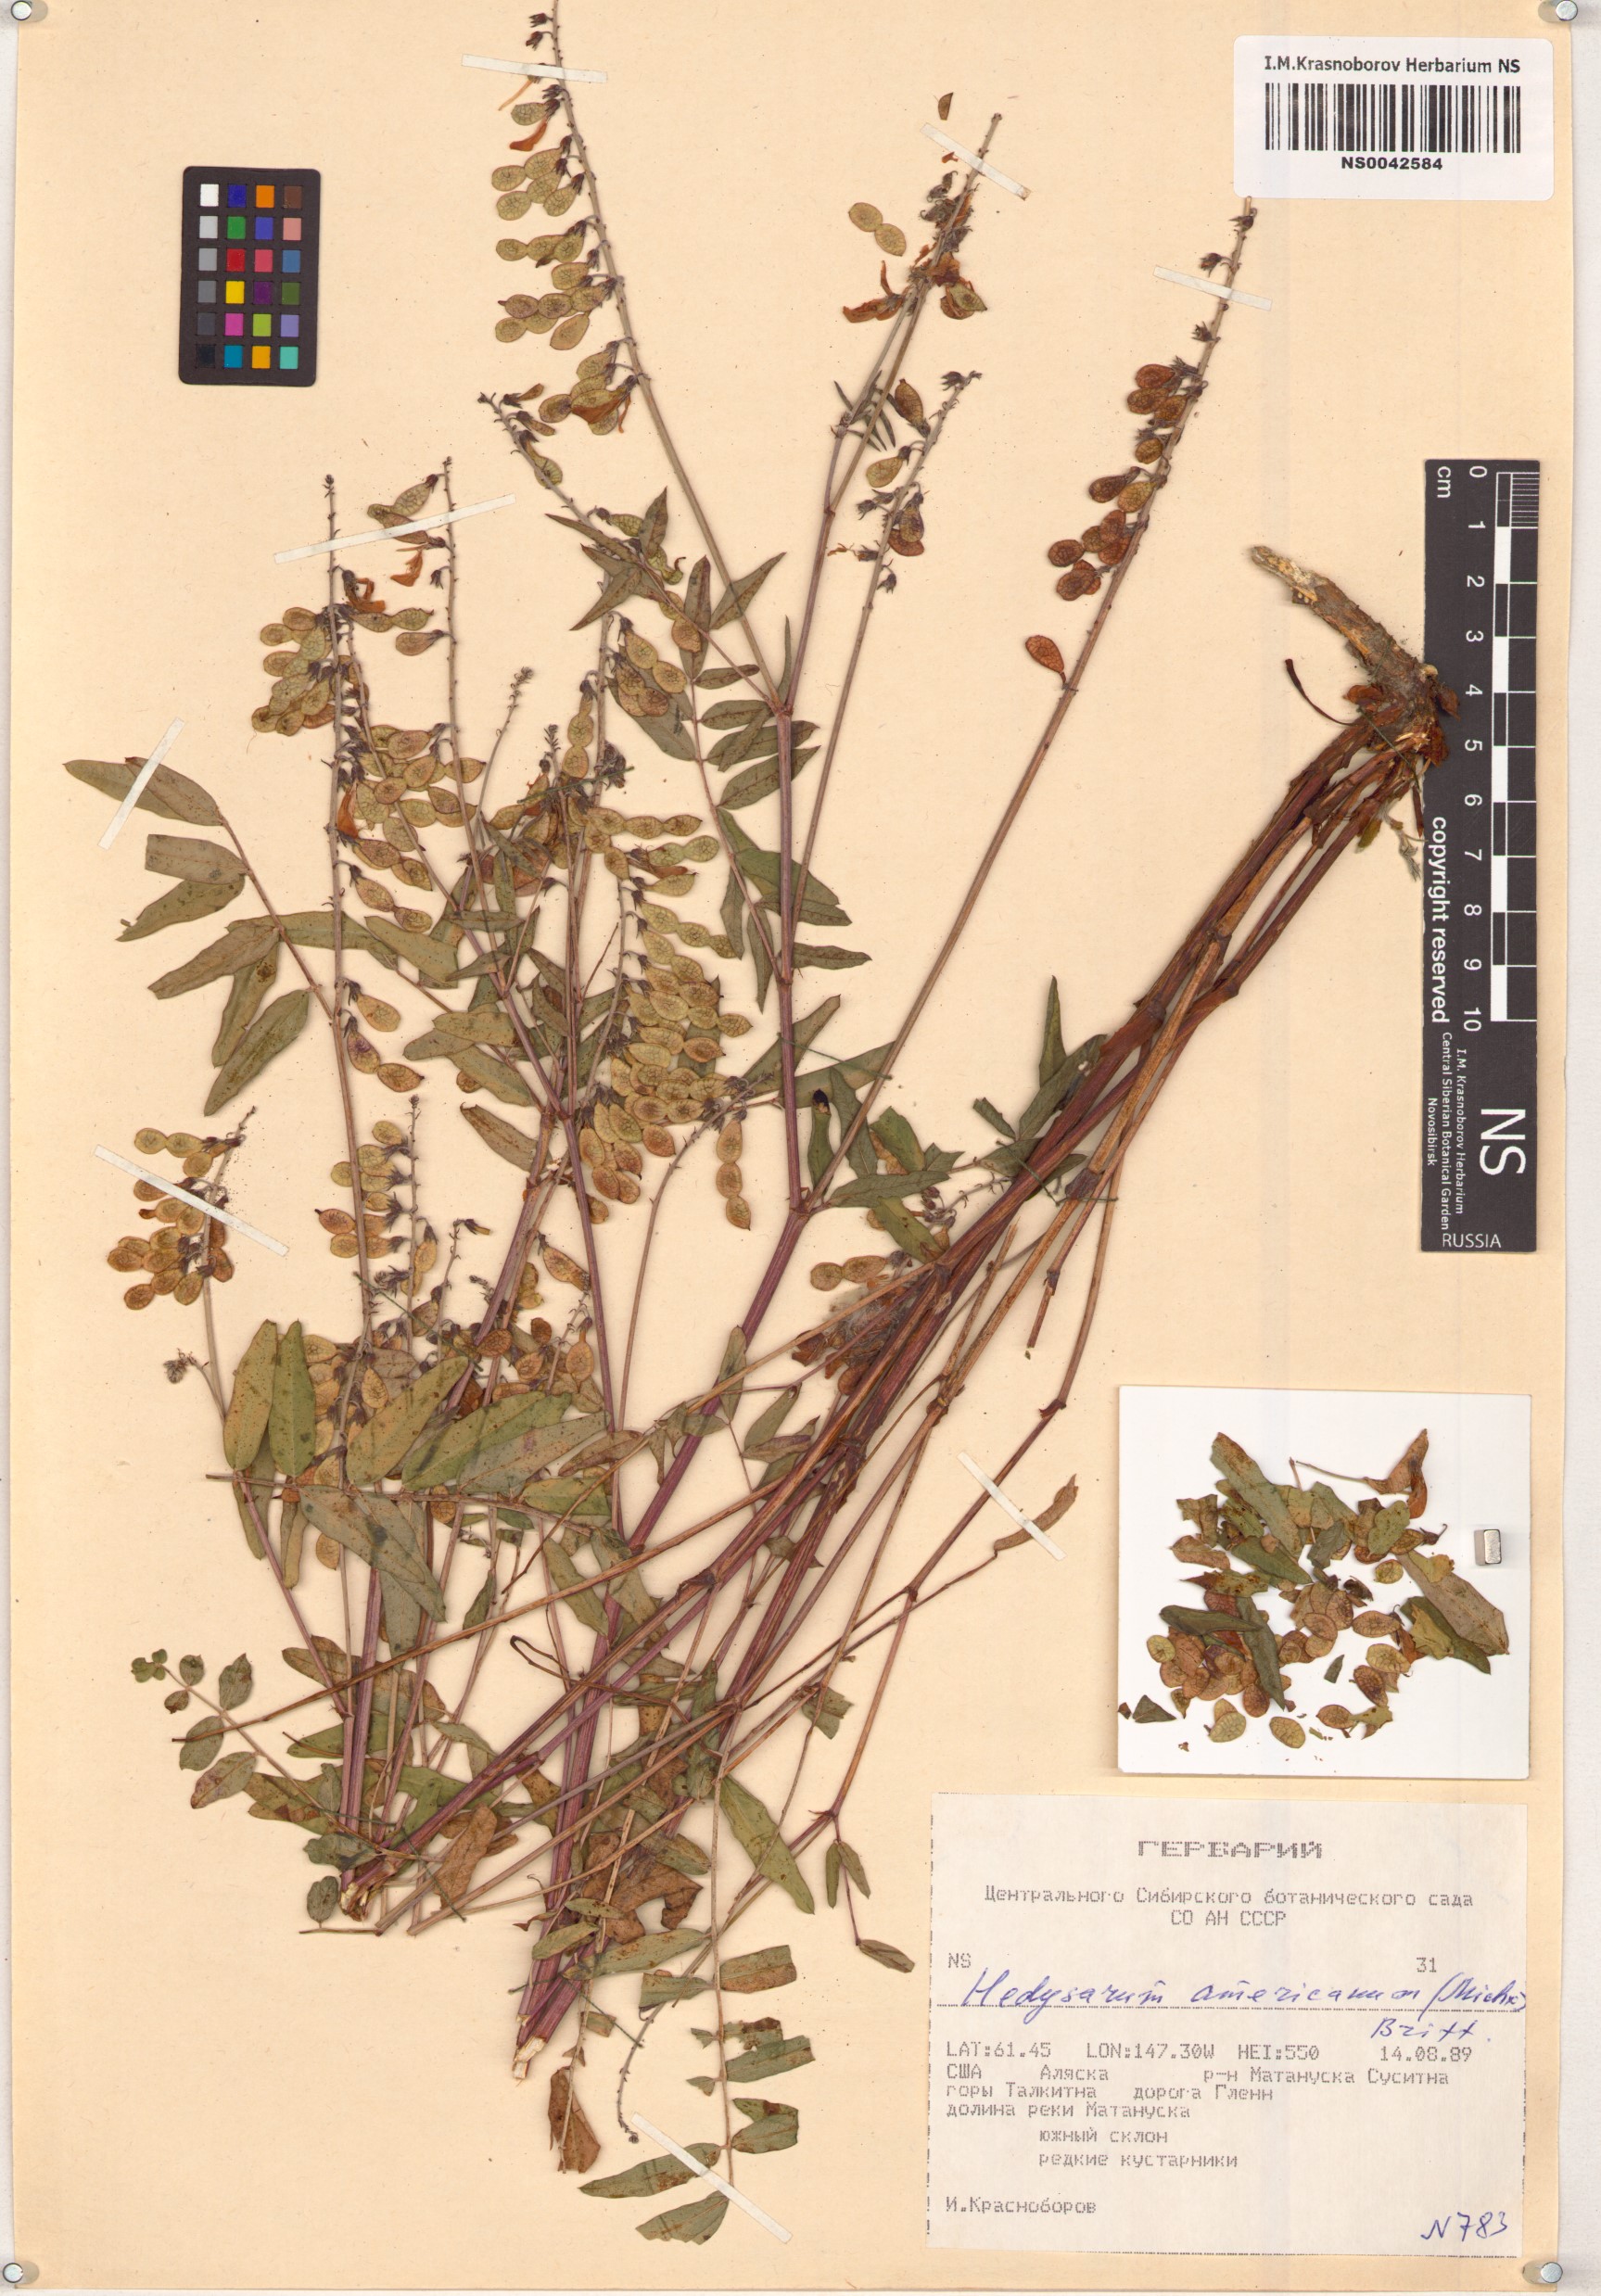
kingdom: Plantae
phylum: Tracheophyta
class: Magnoliopsida
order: Fabales
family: Fabaceae
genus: Hedysarum
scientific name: Hedysarum americanum
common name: Alpine hedysarum
